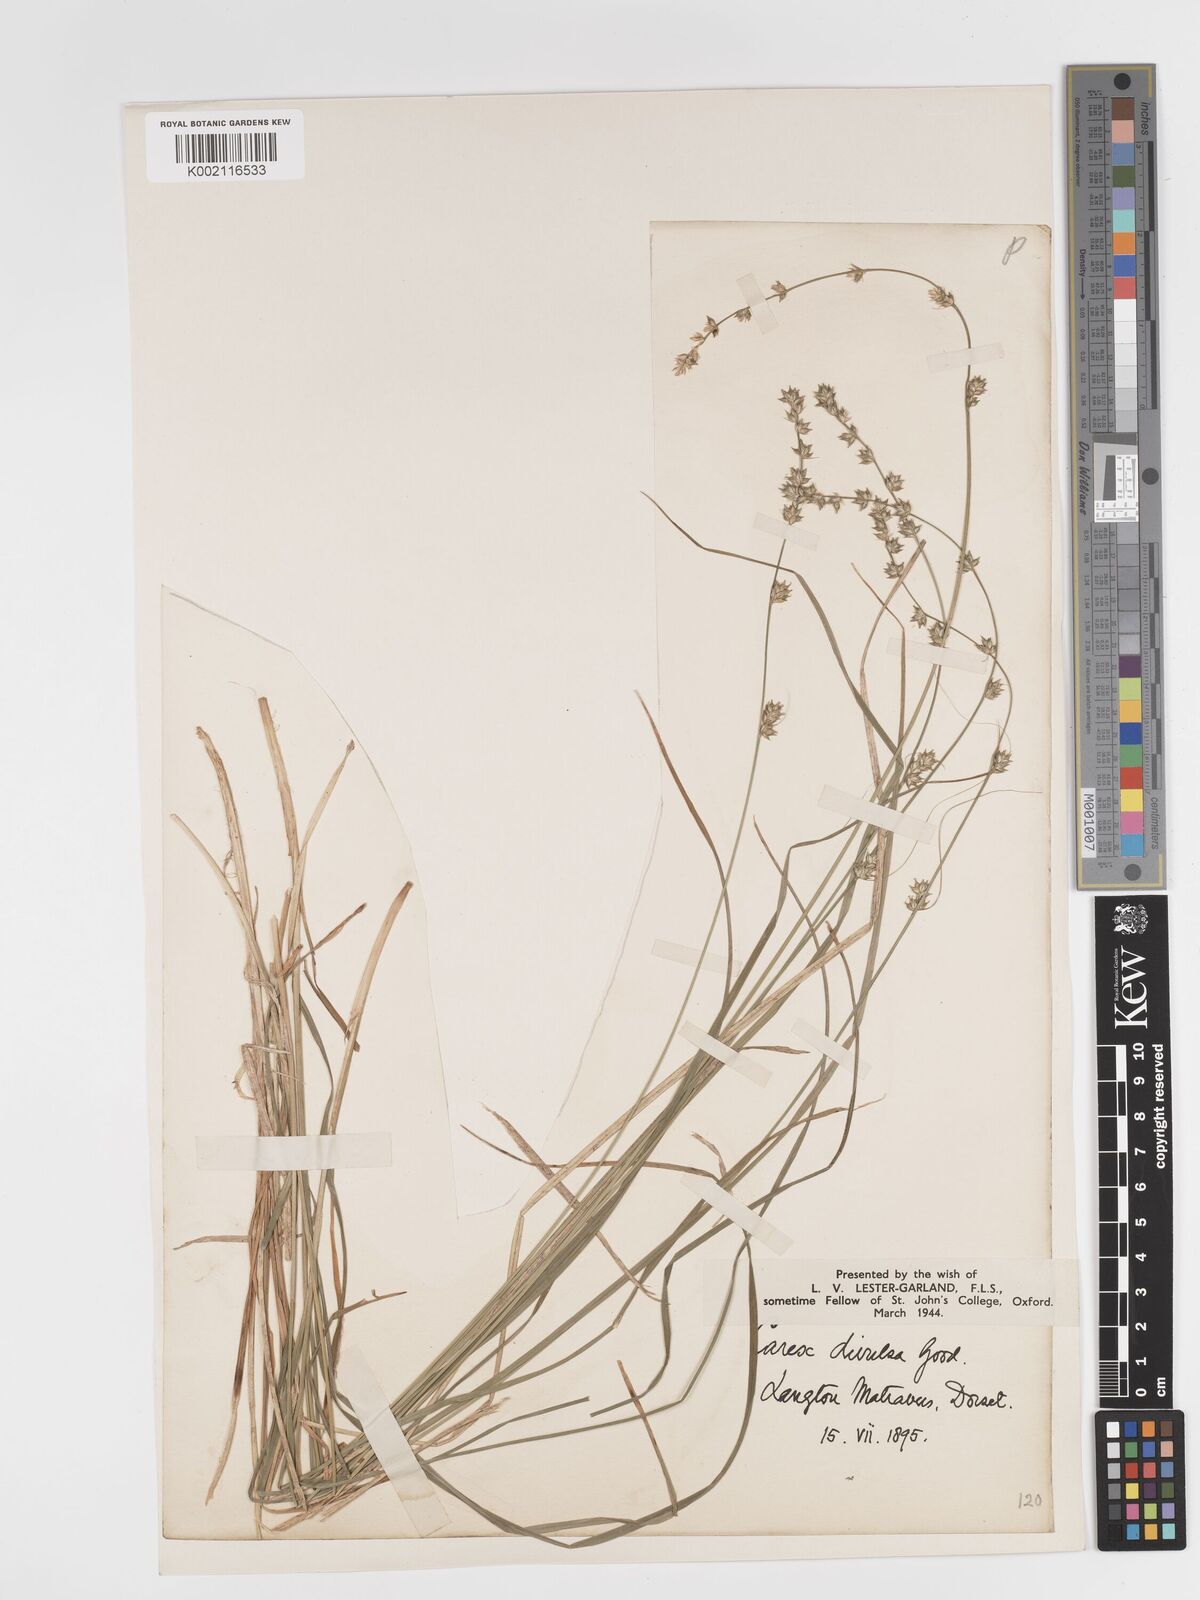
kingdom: Plantae
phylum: Tracheophyta
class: Liliopsida
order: Poales
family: Cyperaceae
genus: Carex
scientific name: Carex divulsa
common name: Grassland sedge
